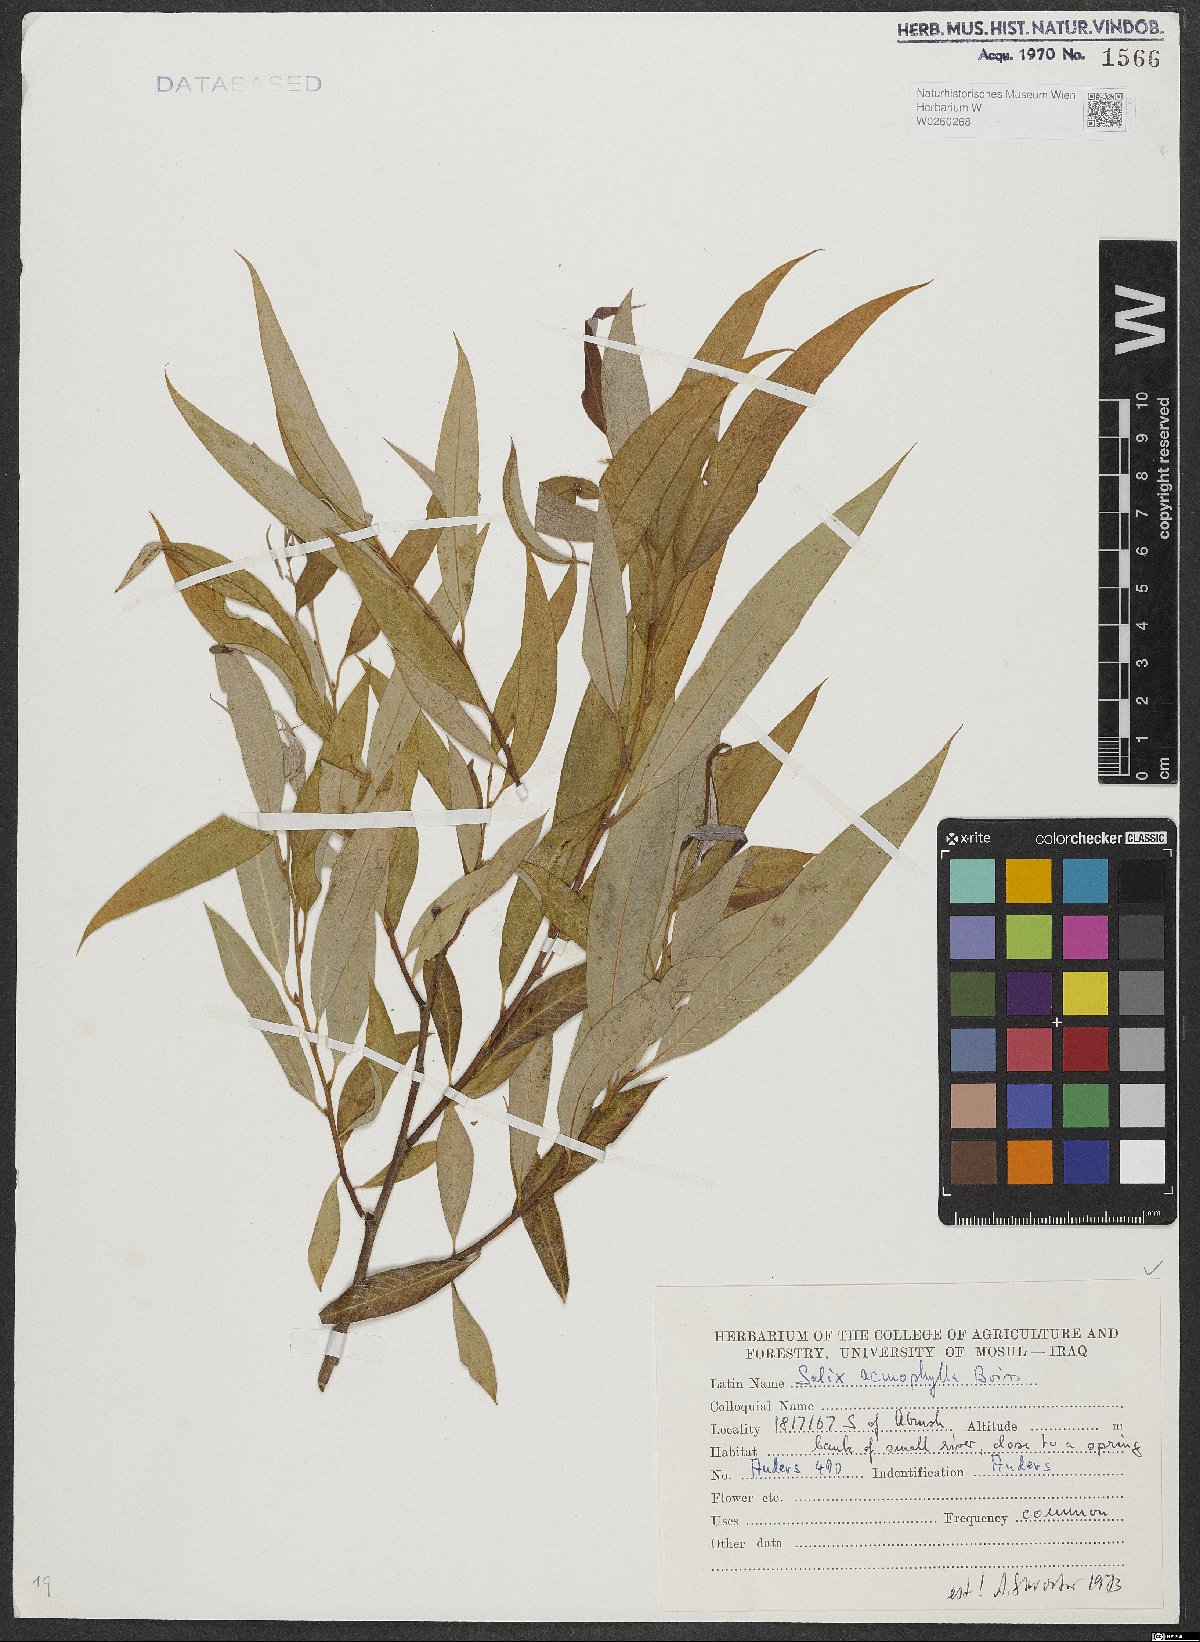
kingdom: Plantae
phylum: Tracheophyta
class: Magnoliopsida
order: Malpighiales
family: Salicaceae
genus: Salix
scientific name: Salix acmophylla
